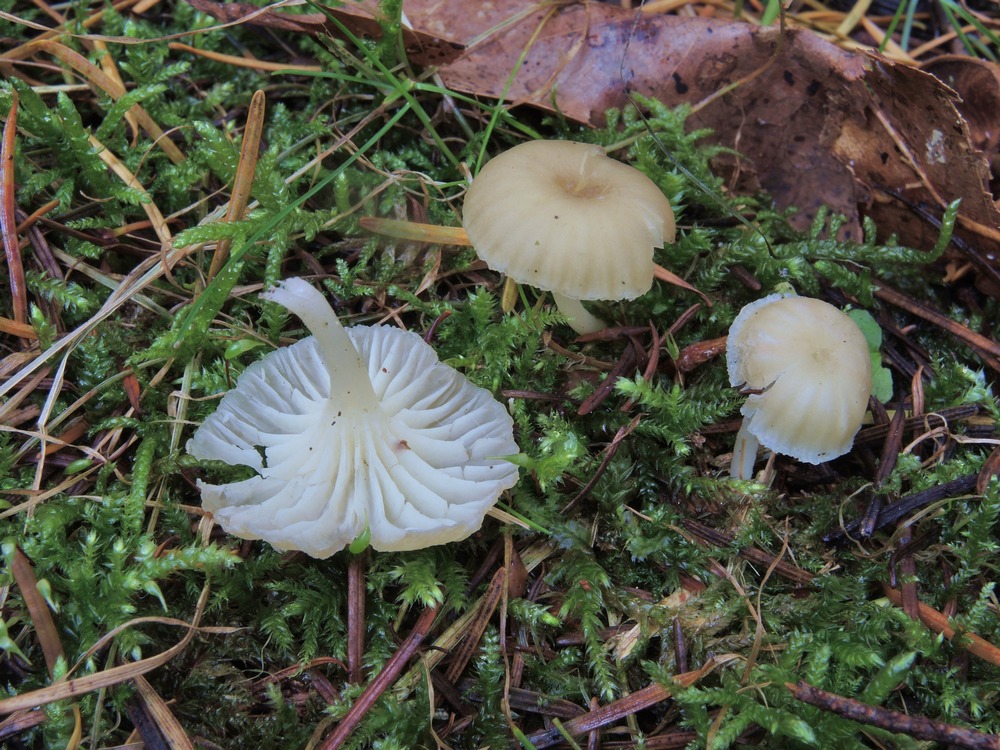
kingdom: Fungi
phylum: Basidiomycota
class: Agaricomycetes
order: Agaricales
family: Hygrophoraceae
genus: Chrysomphalina
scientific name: Chrysomphalina grossula
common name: stød-gyldenblad
